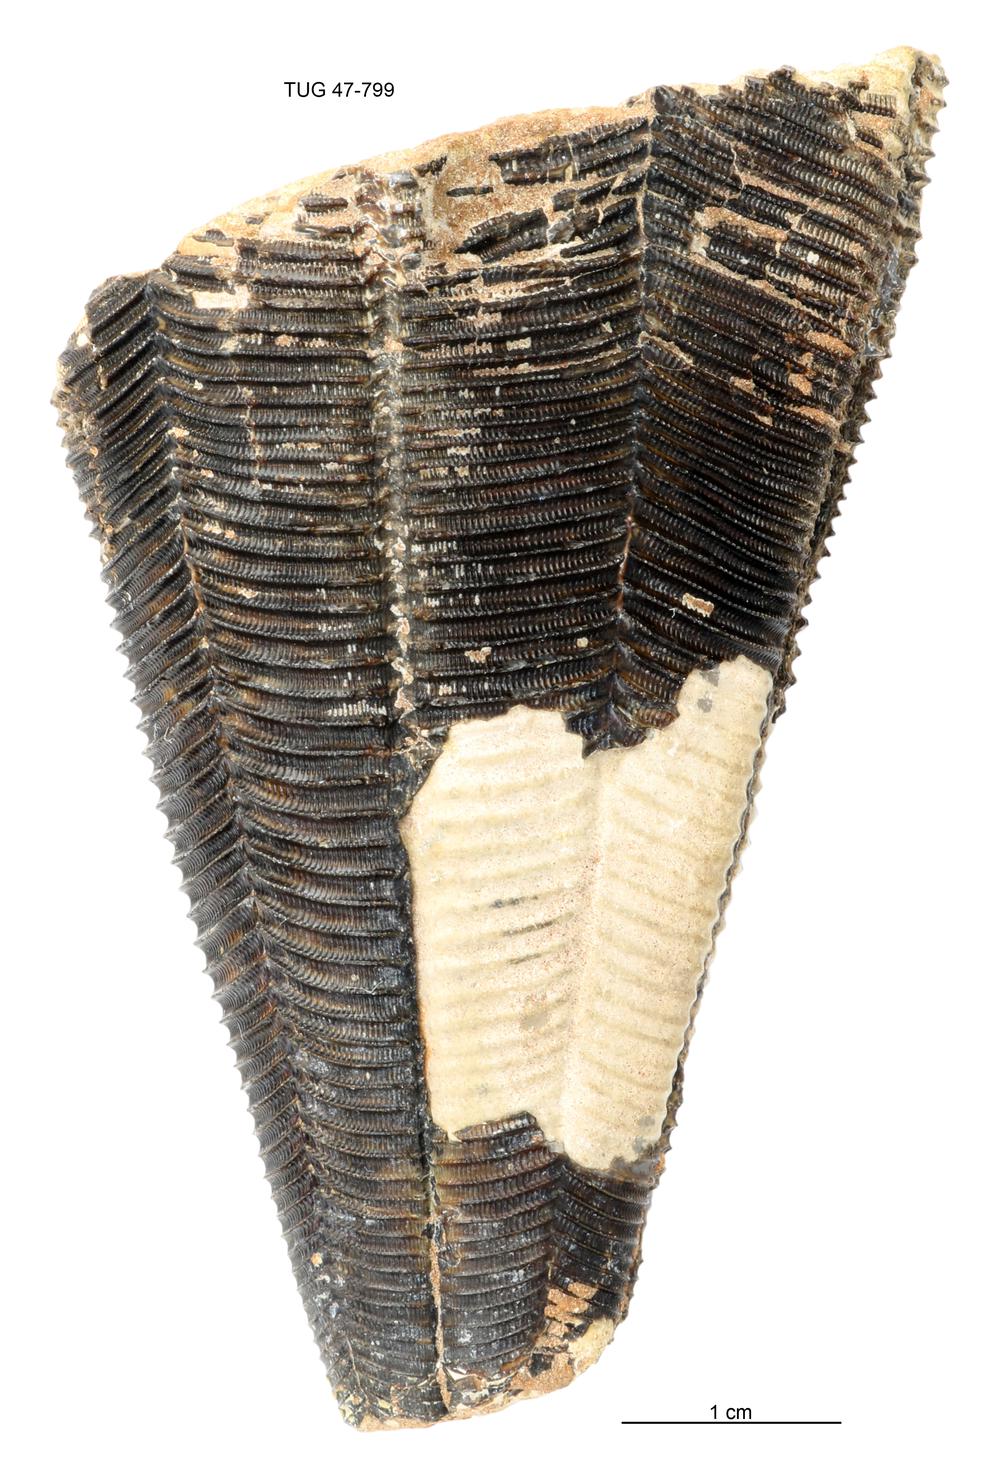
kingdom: Animalia
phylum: Cnidaria
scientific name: Cnidaria
